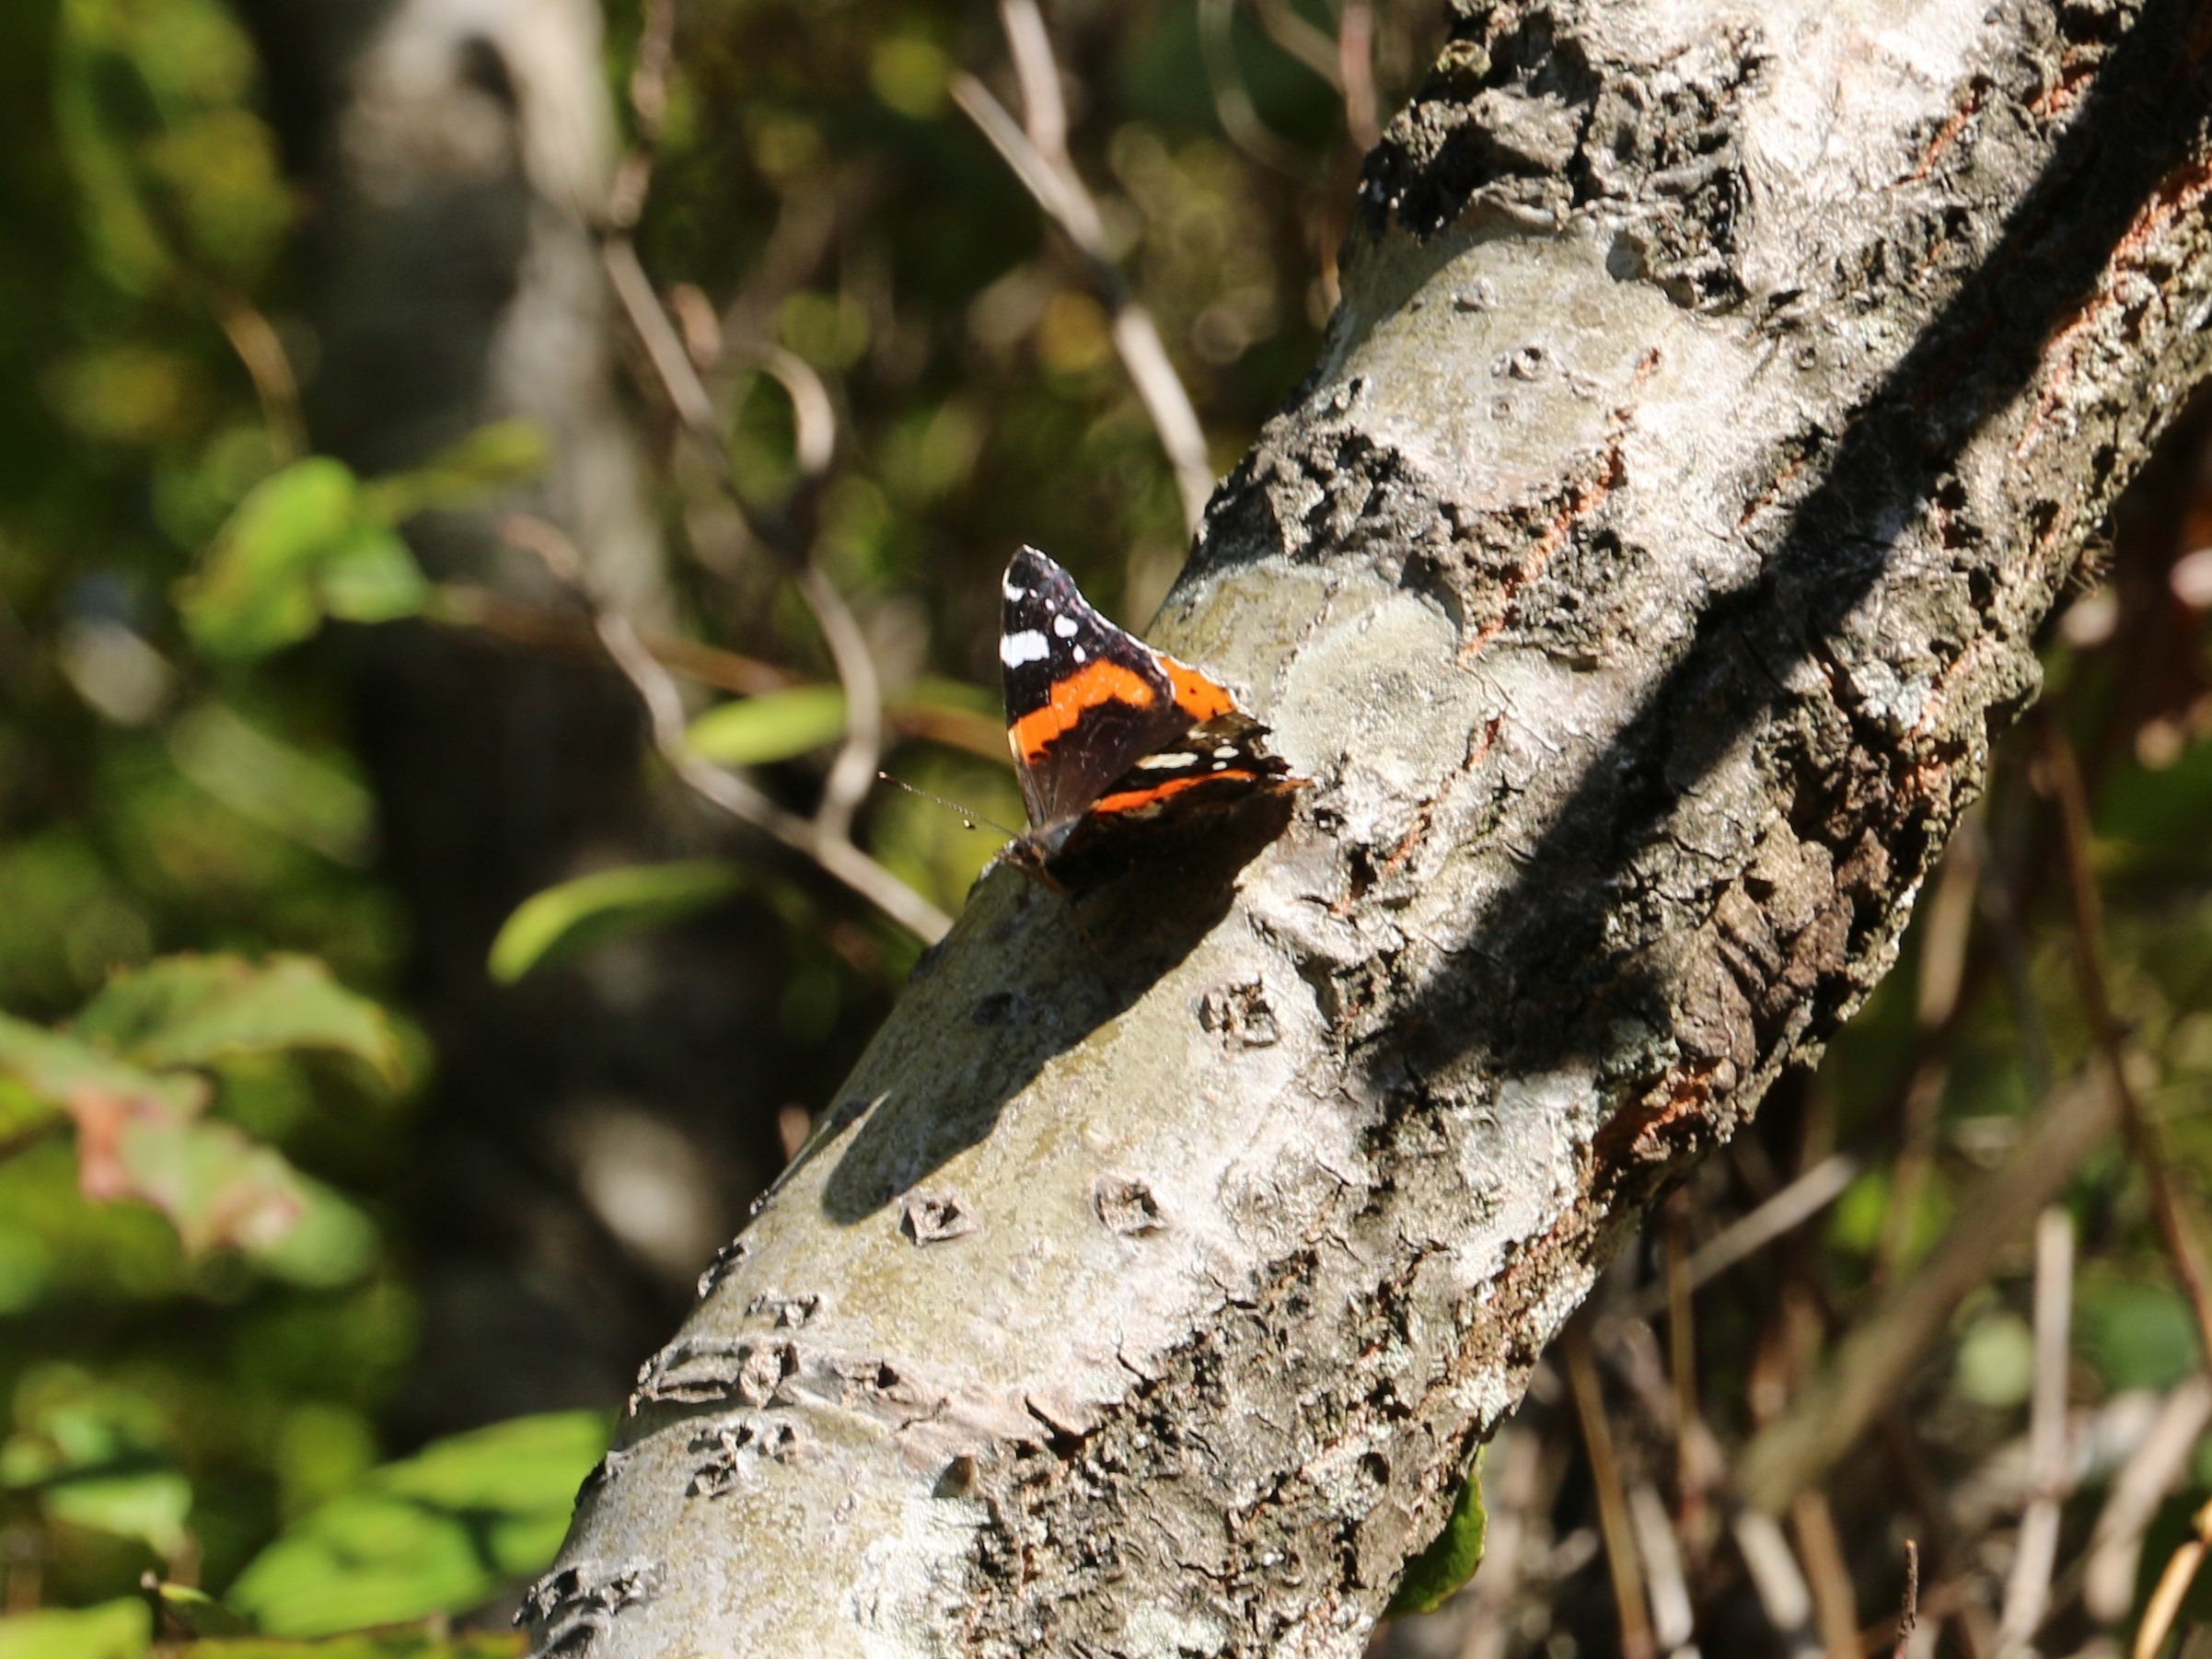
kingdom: Animalia
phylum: Arthropoda
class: Insecta
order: Lepidoptera
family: Nymphalidae
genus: Vanessa
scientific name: Vanessa atalanta
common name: Admiral
